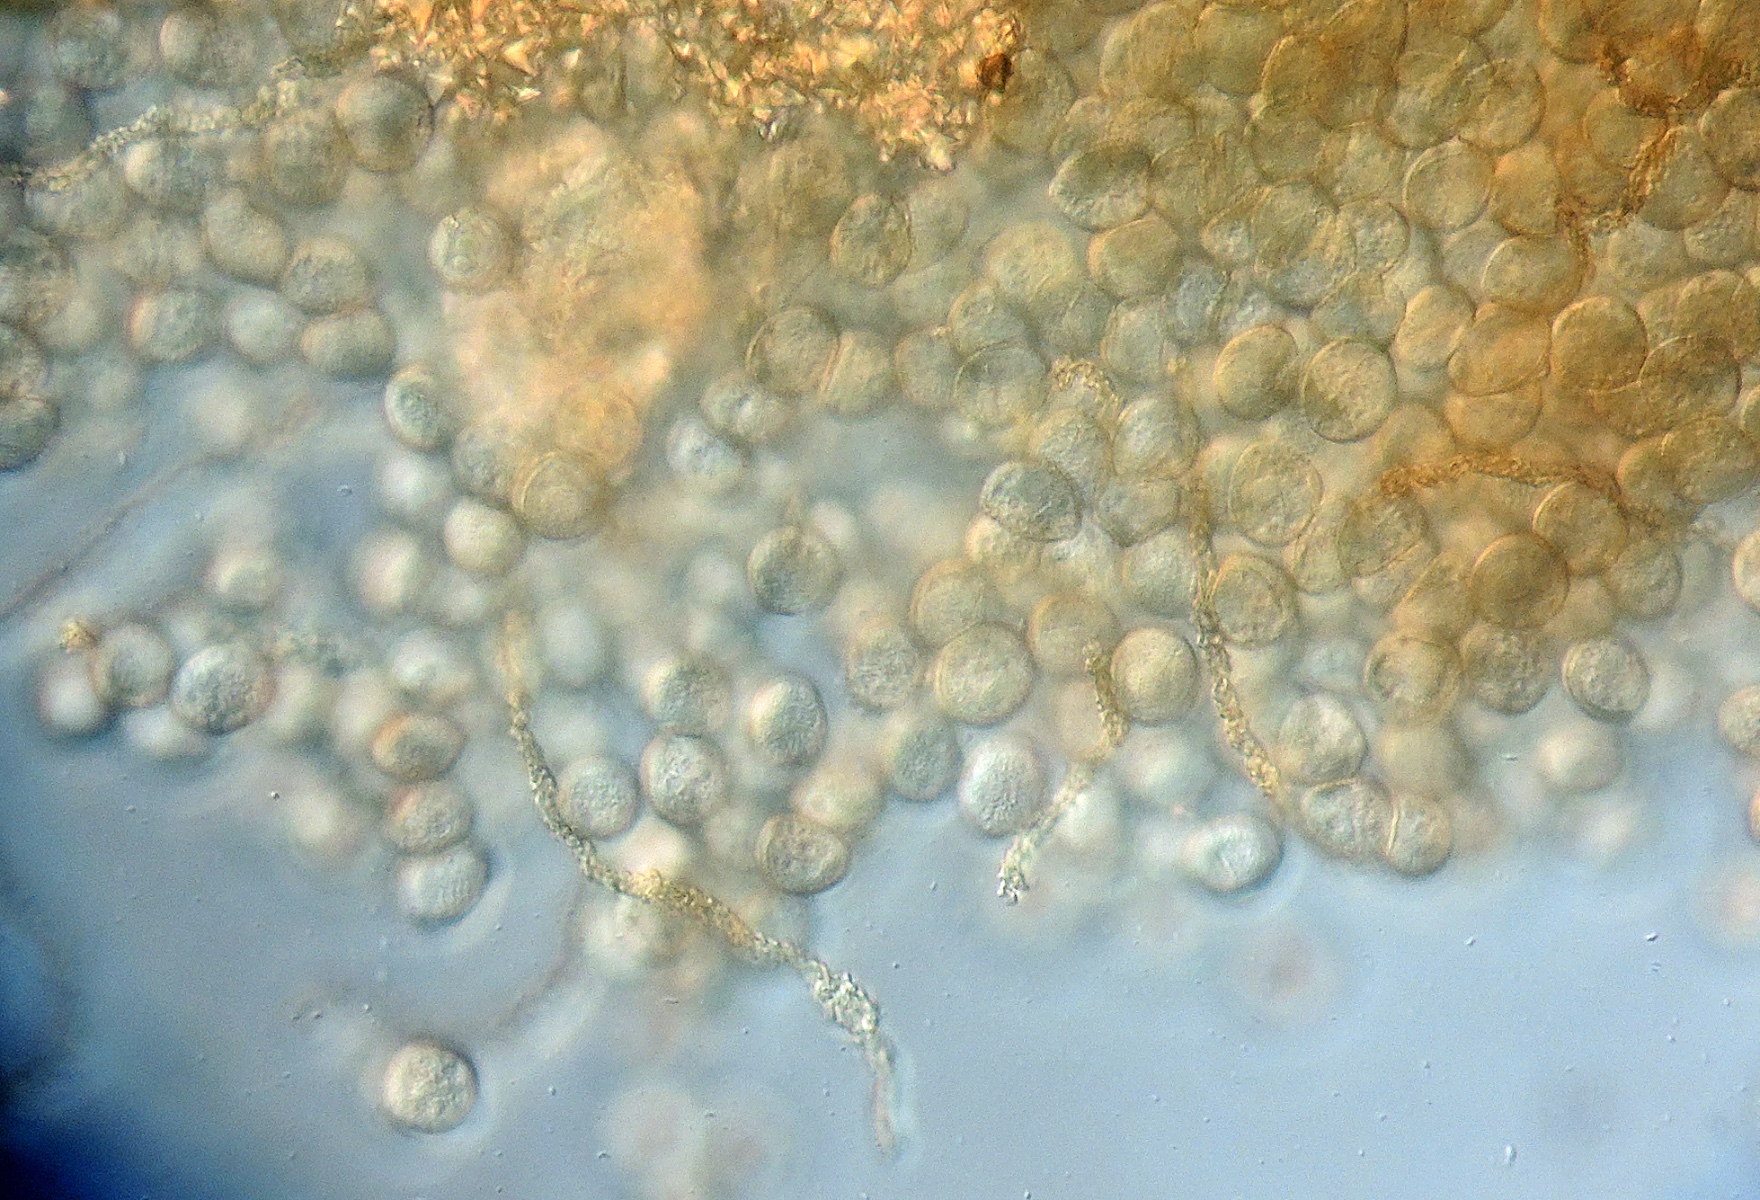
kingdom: Protozoa
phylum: Mycetozoa
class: Myxomycetes
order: Trichiales
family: Trichiaceae
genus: Gulielmina
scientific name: Gulielmina vermicularis
